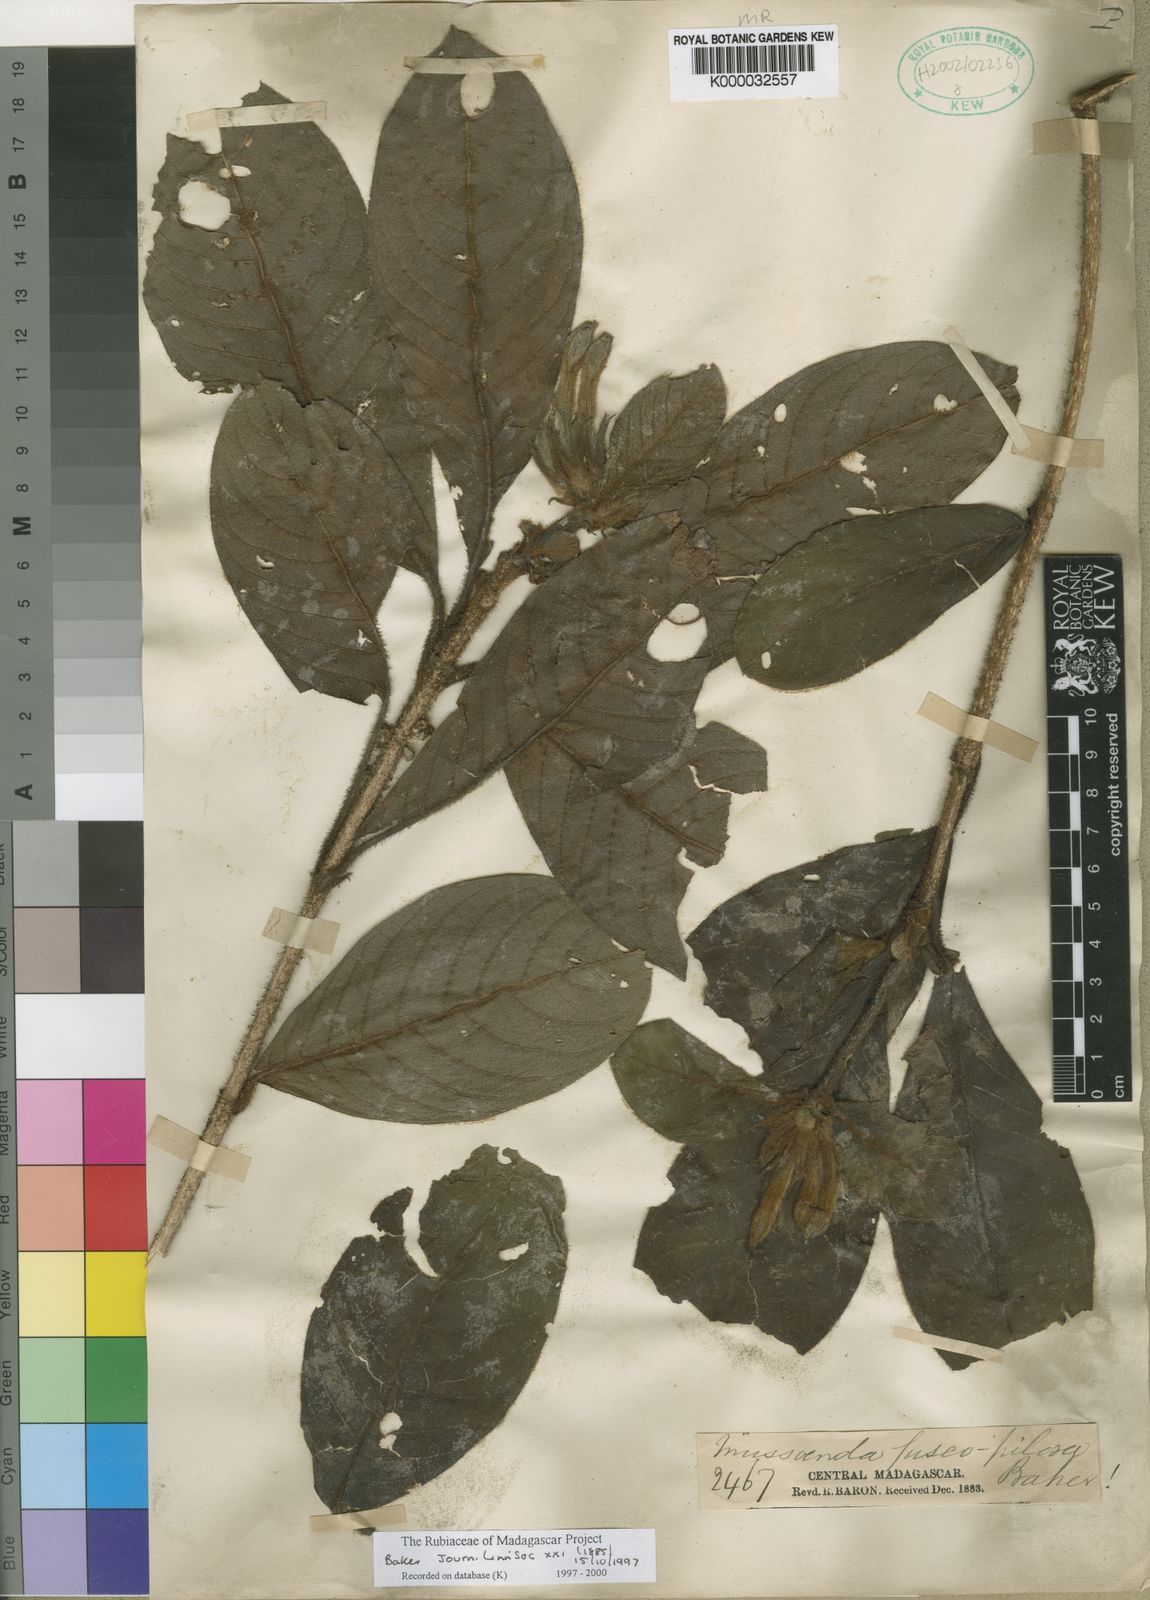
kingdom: Plantae
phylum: Tracheophyta
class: Magnoliopsida
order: Gentianales
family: Rubiaceae
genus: Bremeria
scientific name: Bremeria fuscopilosa
